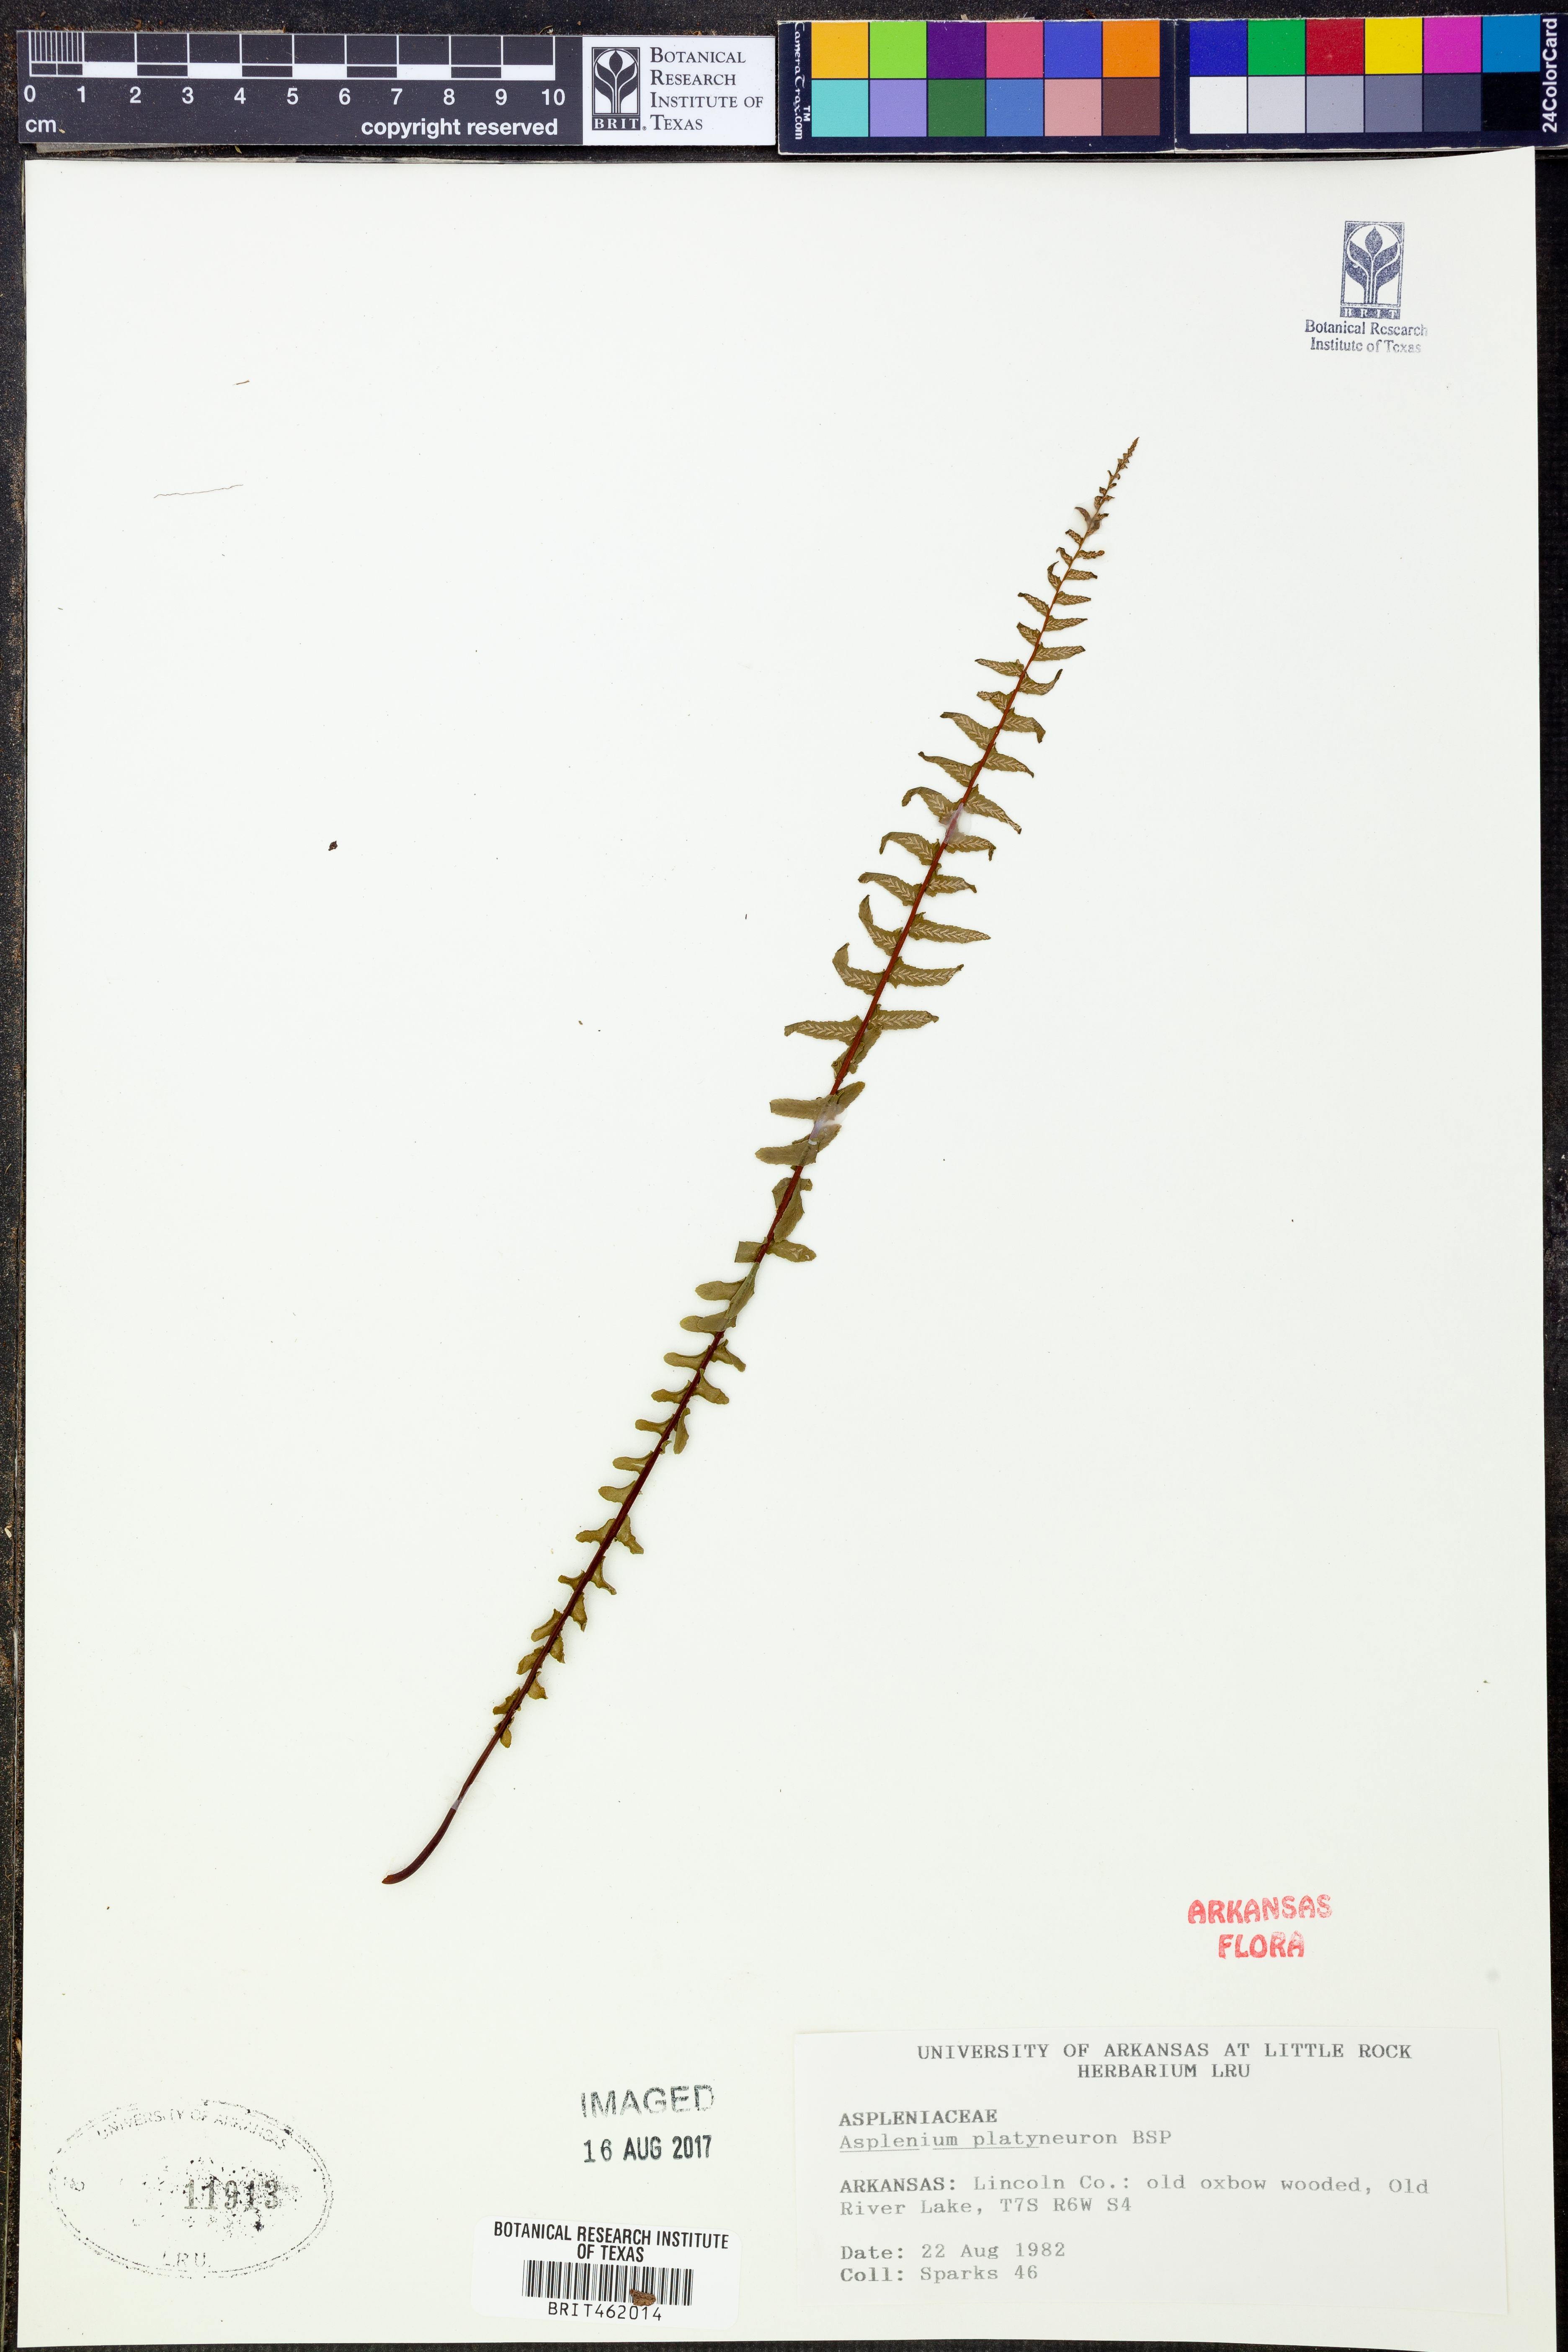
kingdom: Plantae
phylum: Tracheophyta
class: Polypodiopsida
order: Polypodiales
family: Aspleniaceae
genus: Asplenium
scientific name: Asplenium platyneuron
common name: Ebony spleenwort
